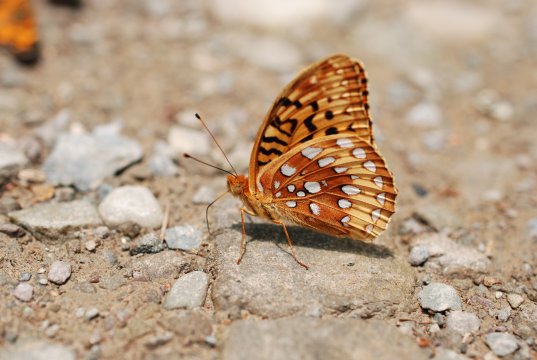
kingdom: Animalia
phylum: Arthropoda
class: Insecta
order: Lepidoptera
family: Nymphalidae
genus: Speyeria
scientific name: Speyeria cybele
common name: Great Spangled Fritillary
